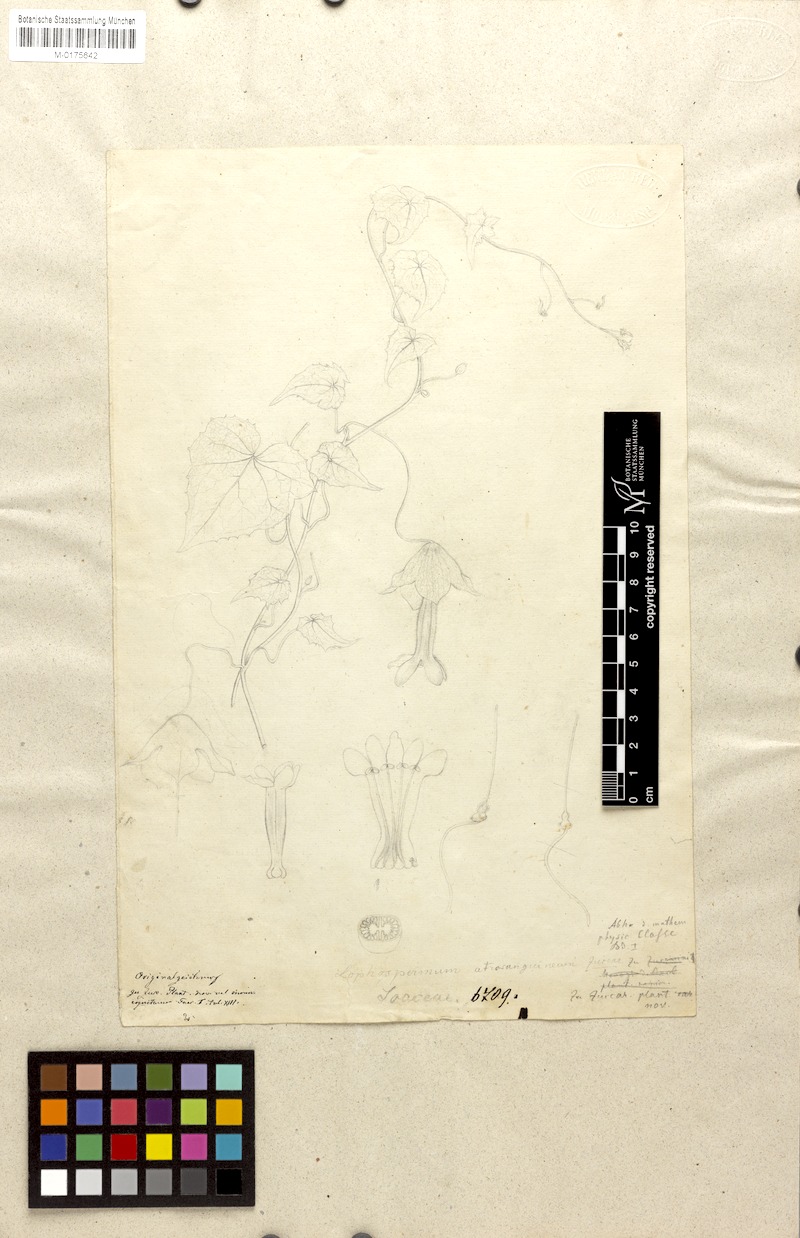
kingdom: Plantae
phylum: Tracheophyta
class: Magnoliopsida
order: Lamiales
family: Plantaginaceae
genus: Rhodochiton
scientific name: Rhodochiton atrosanguineus
